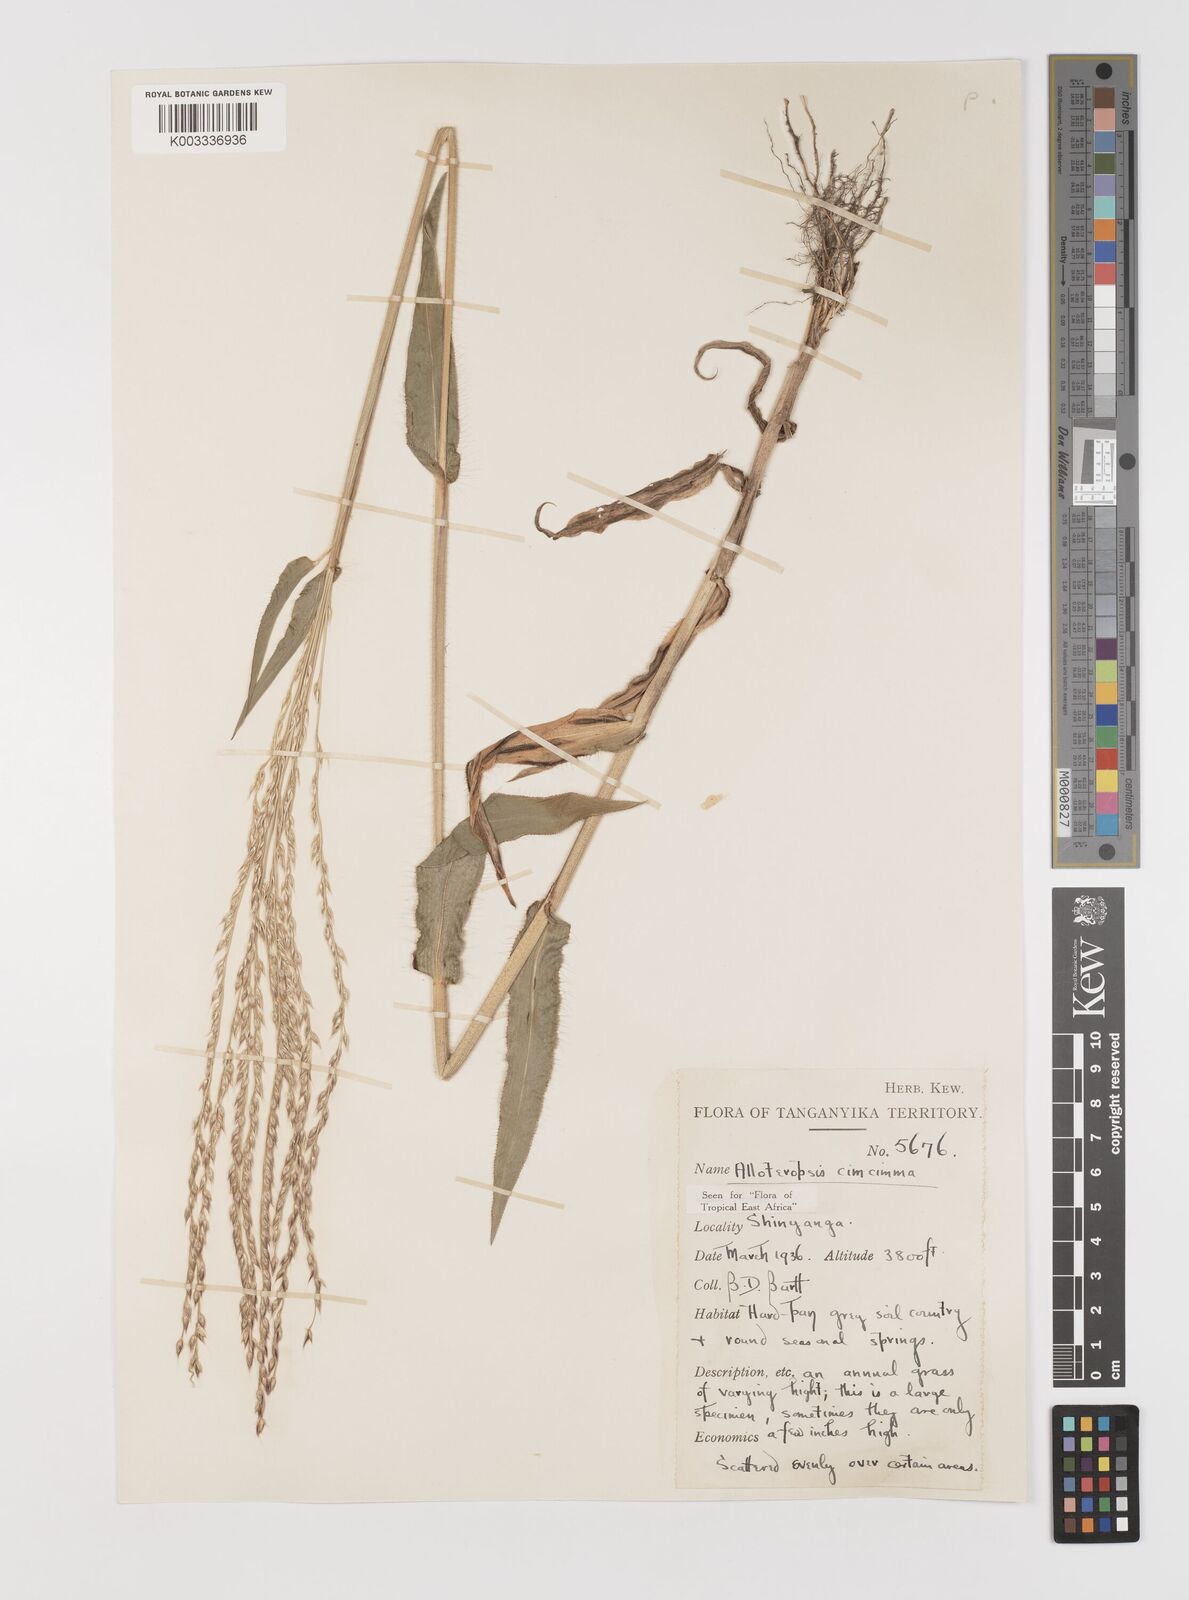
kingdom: Plantae
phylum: Tracheophyta
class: Liliopsida
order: Poales
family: Poaceae
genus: Alloteropsis
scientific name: Alloteropsis cimicina
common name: Summergrass
